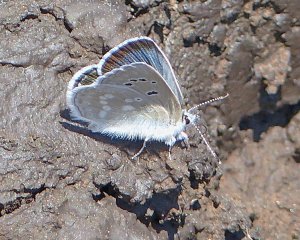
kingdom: Animalia
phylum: Arthropoda
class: Insecta
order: Lepidoptera
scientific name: Lepidoptera
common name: Butterflies
